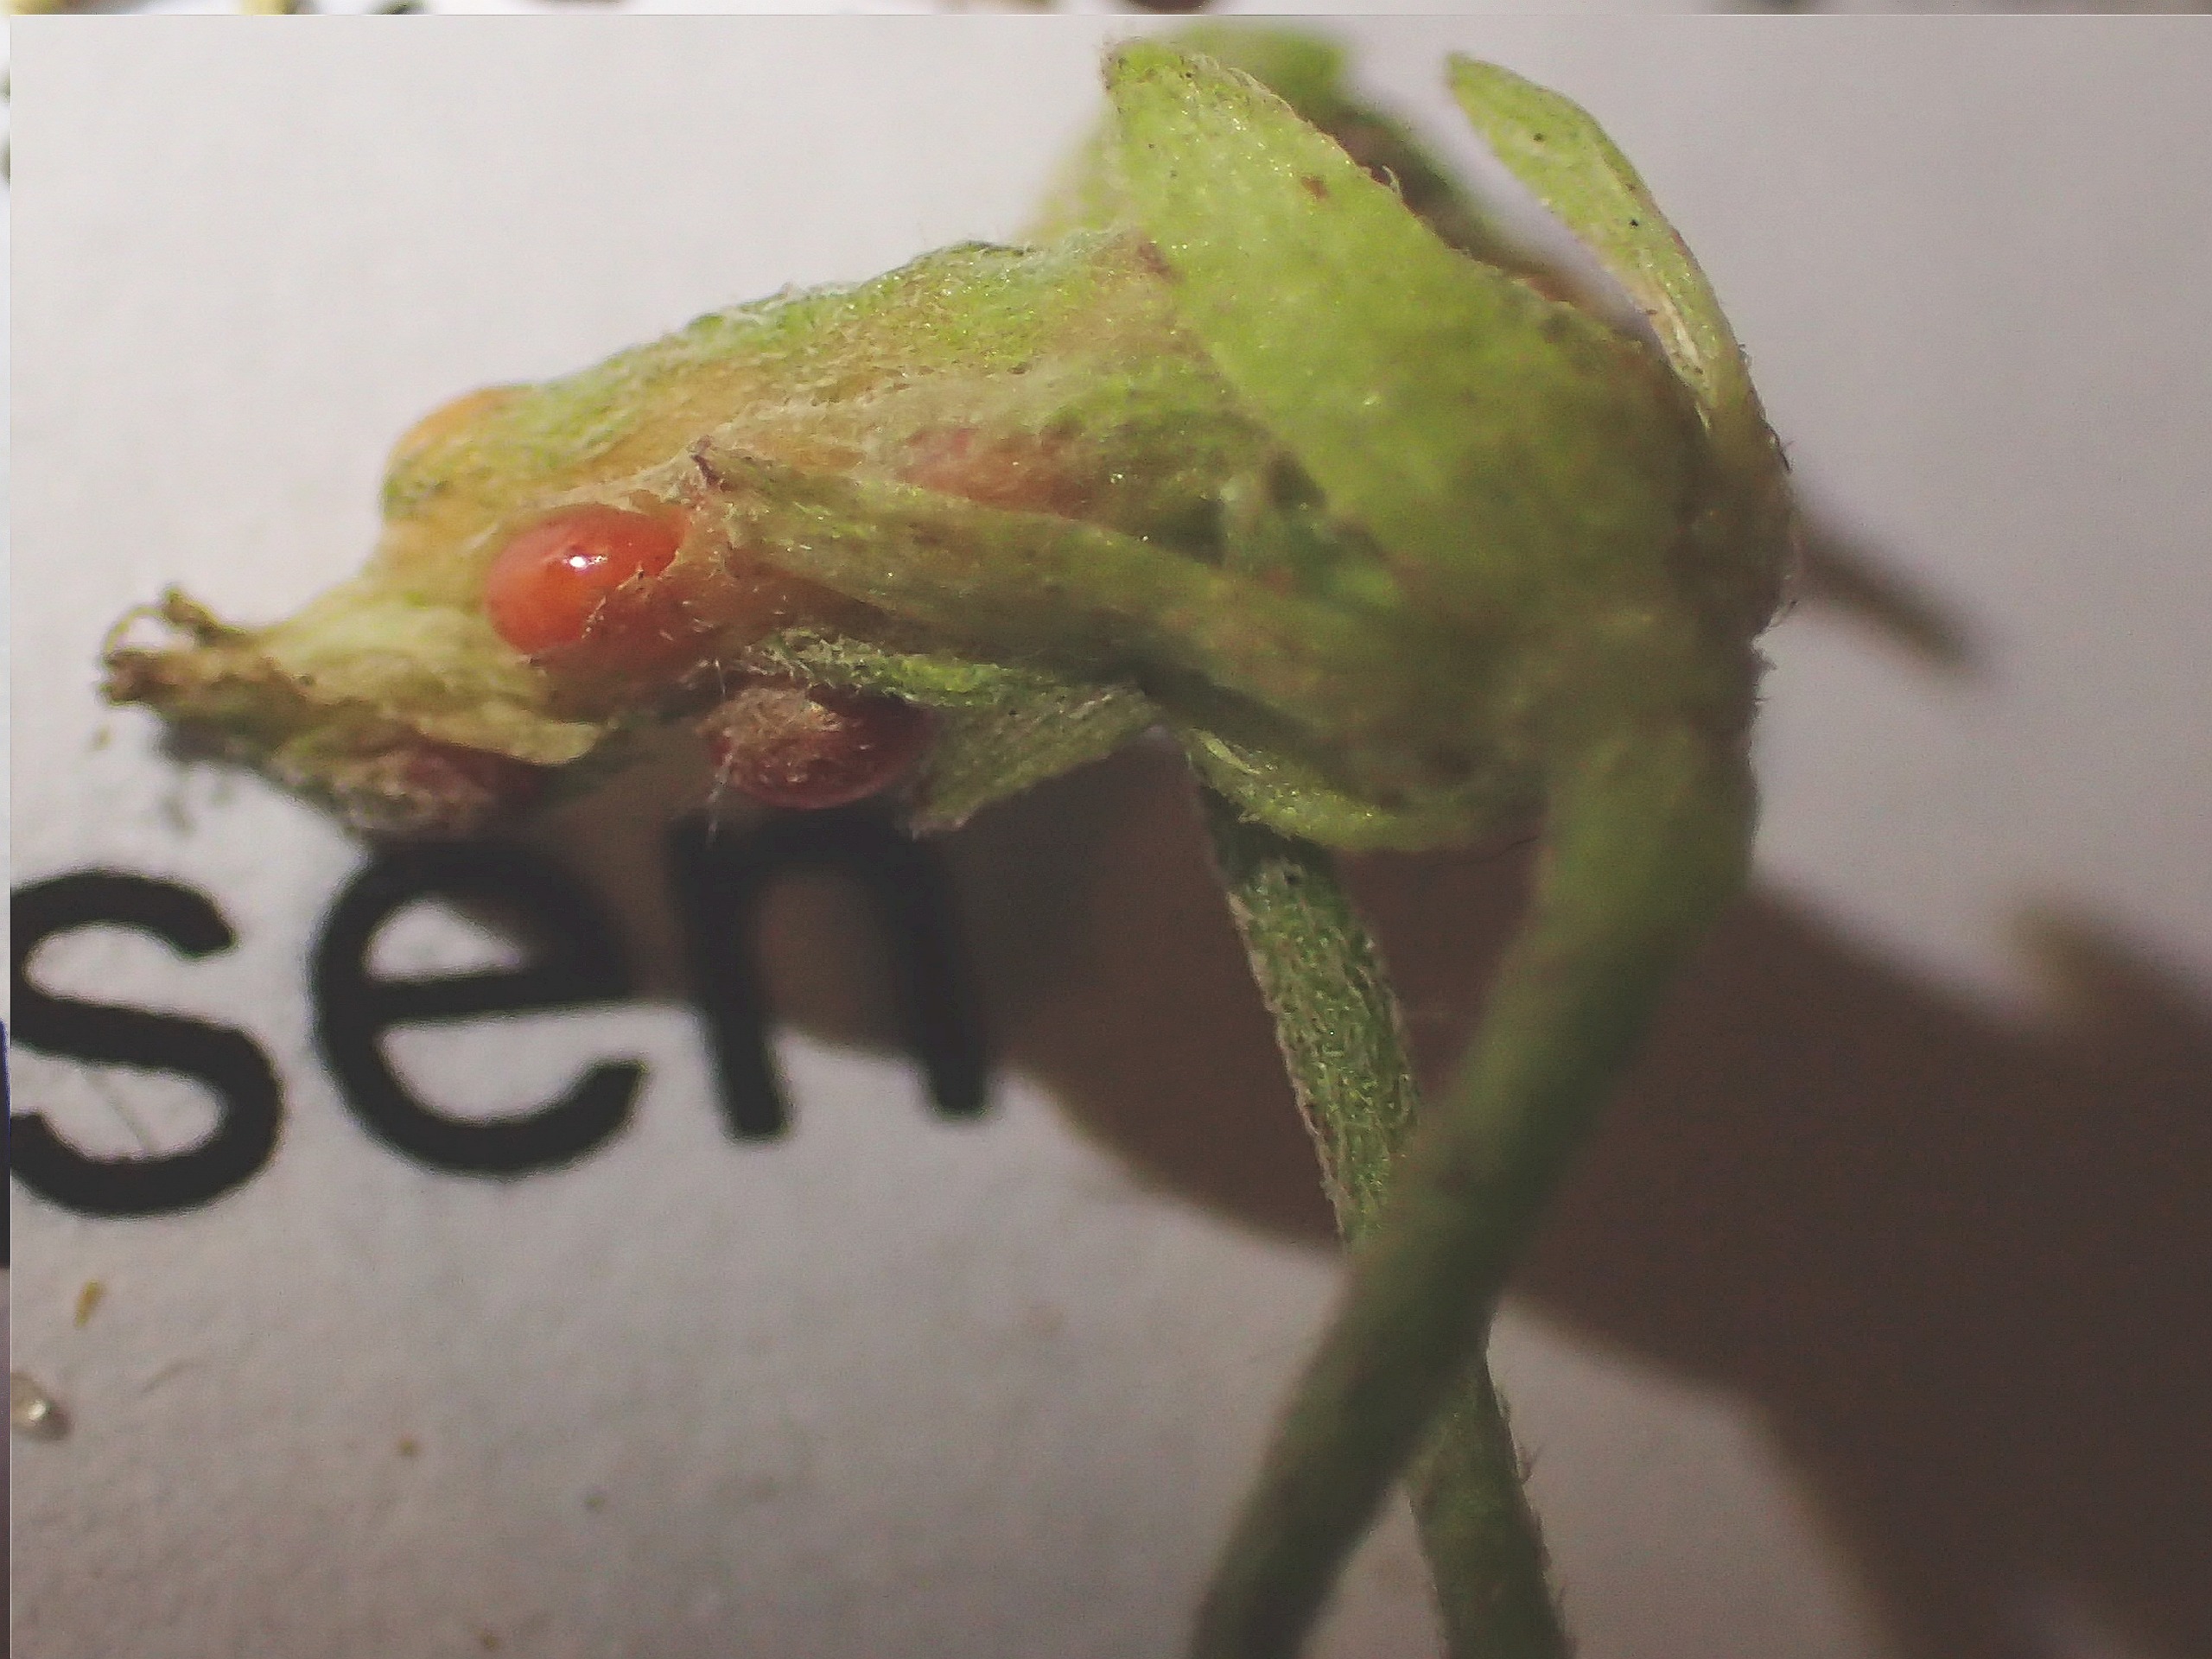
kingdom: Plantae
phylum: Tracheophyta
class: Magnoliopsida
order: Oxalidales
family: Oxalidaceae
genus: Oxalis
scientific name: Oxalis corniculata
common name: Nedliggende surkløver
